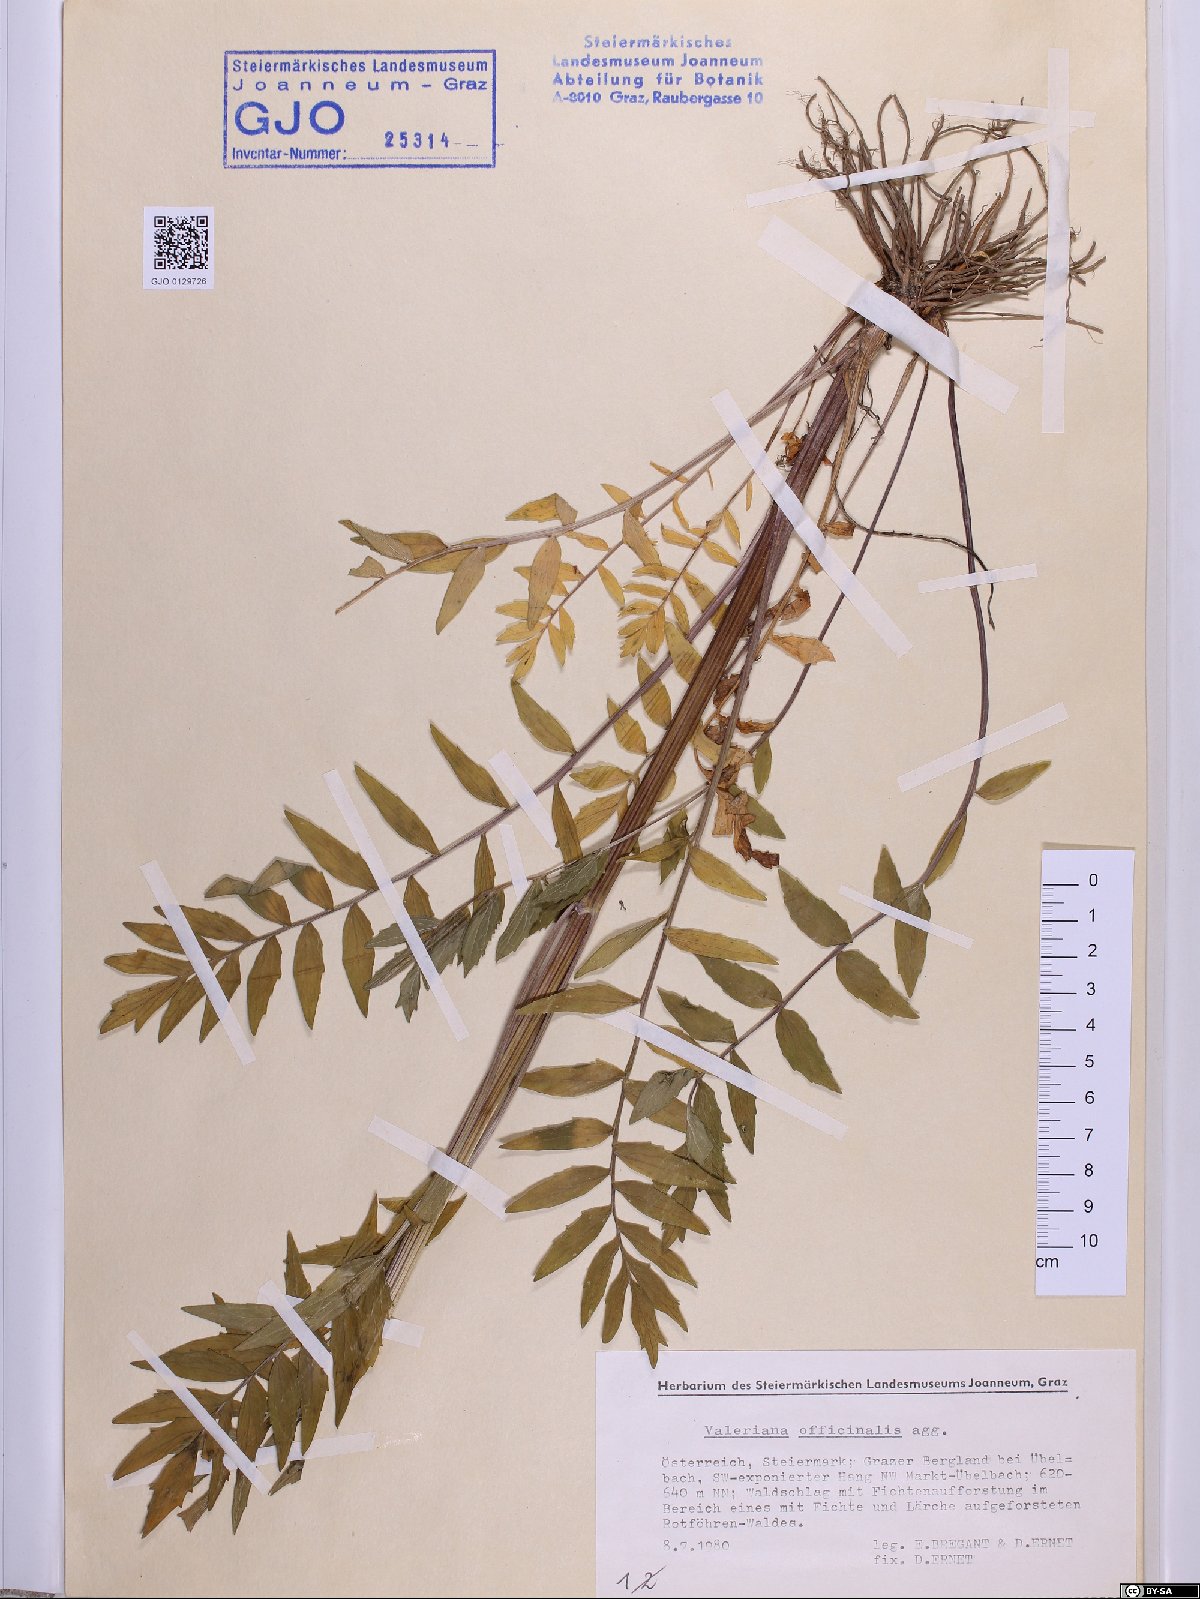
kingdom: Plantae
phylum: Tracheophyta
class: Magnoliopsida
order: Dipsacales
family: Caprifoliaceae
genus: Valeriana
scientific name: Valeriana officinalis
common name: Common valerian
